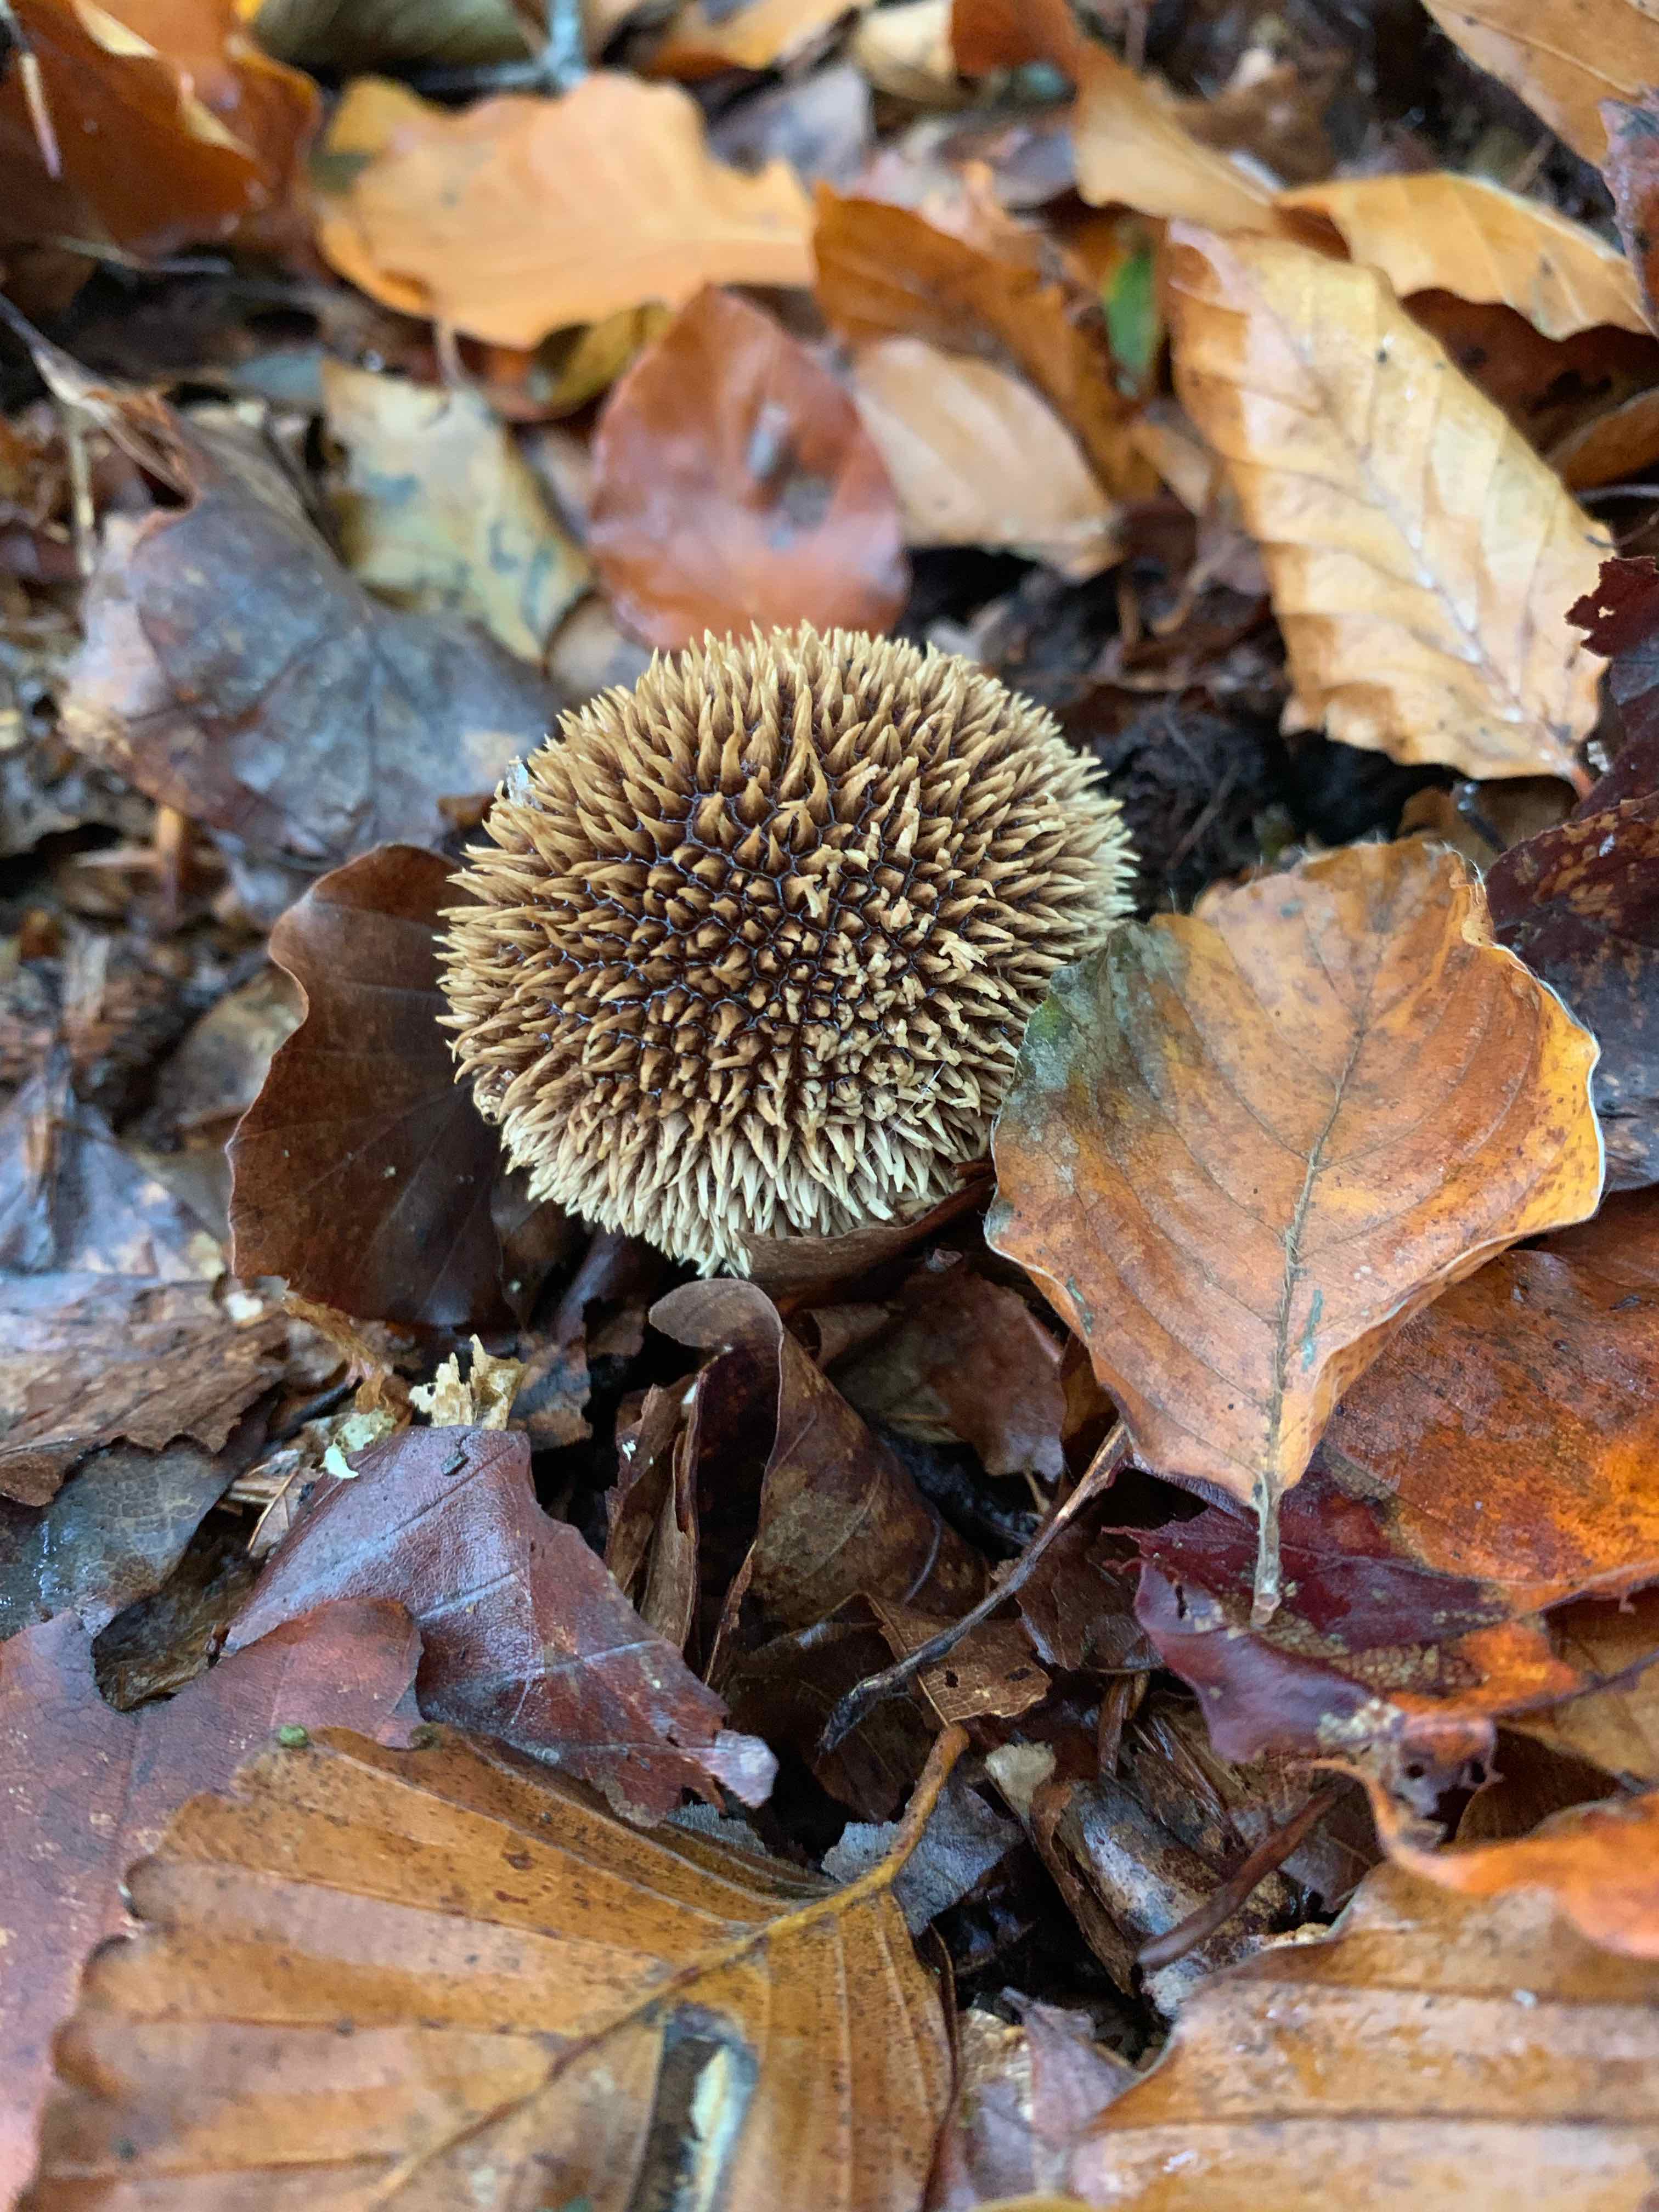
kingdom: Fungi
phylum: Basidiomycota
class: Agaricomycetes
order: Agaricales
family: Lycoperdaceae
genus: Lycoperdon
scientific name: Lycoperdon echinatum
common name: pindsvine-støvbold
